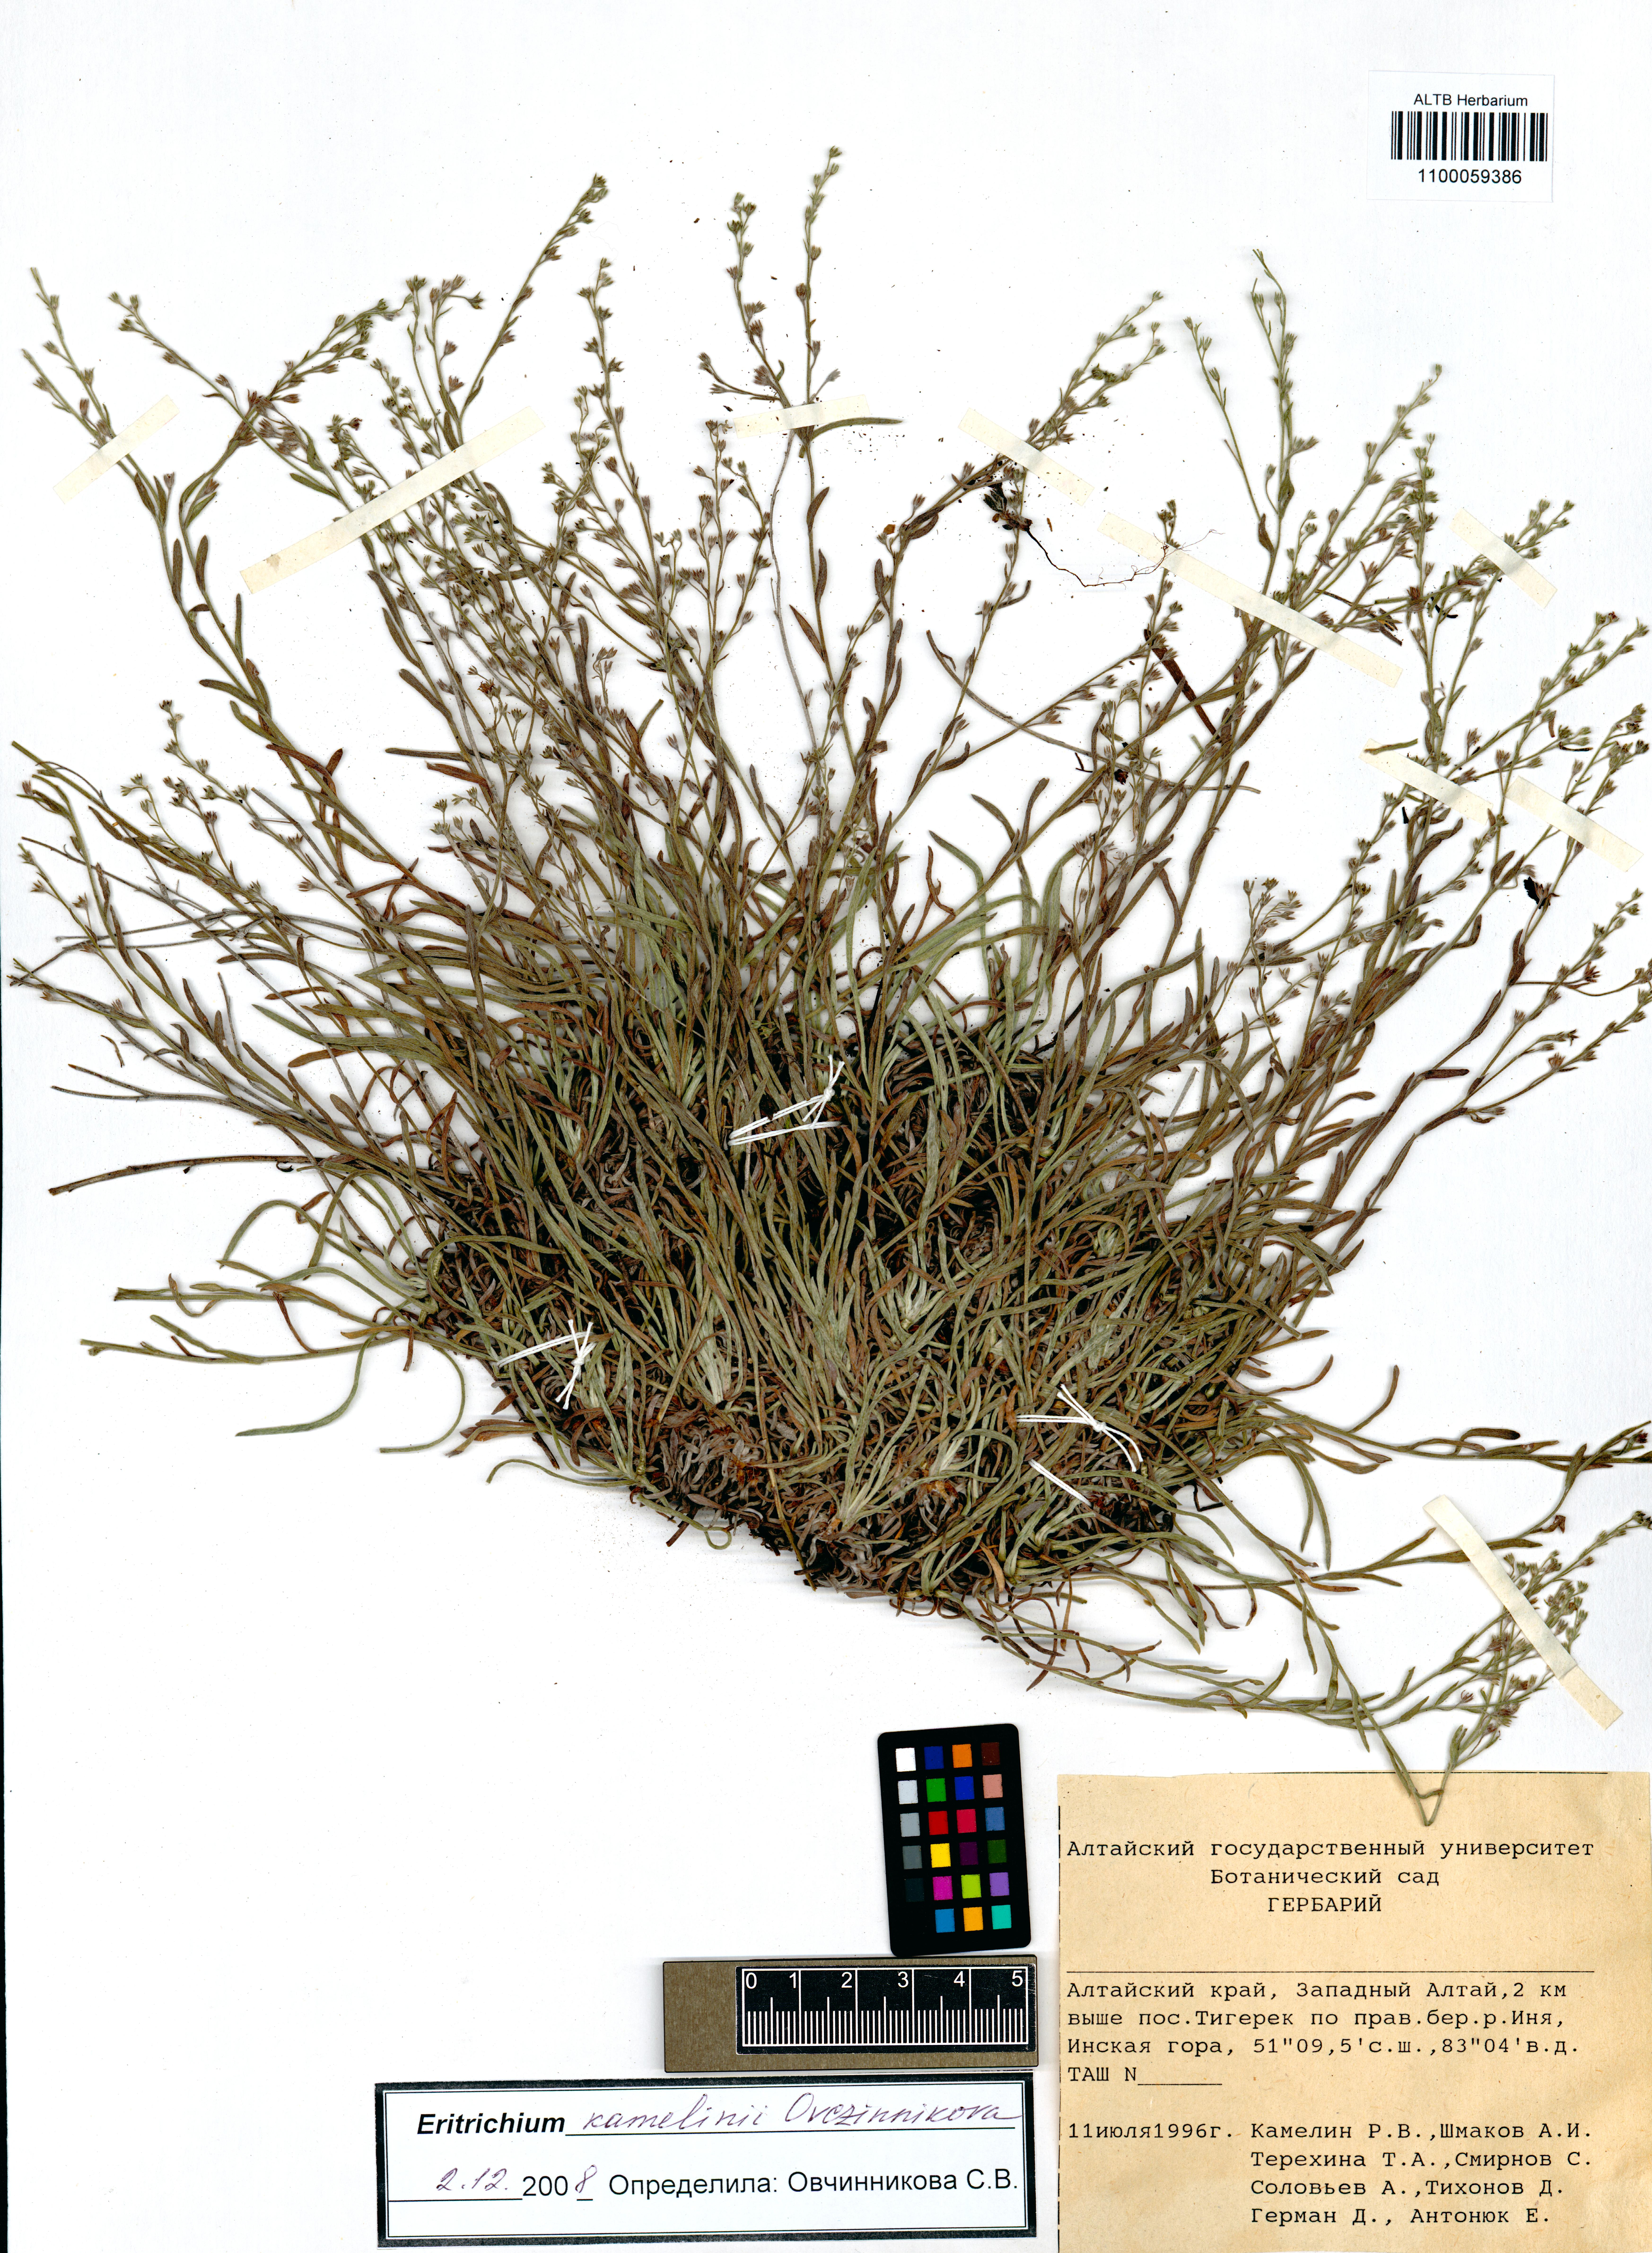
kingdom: Plantae
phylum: Tracheophyta
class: Magnoliopsida
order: Boraginales
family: Boraginaceae
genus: Eritrichium
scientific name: Eritrichium kamelinii
